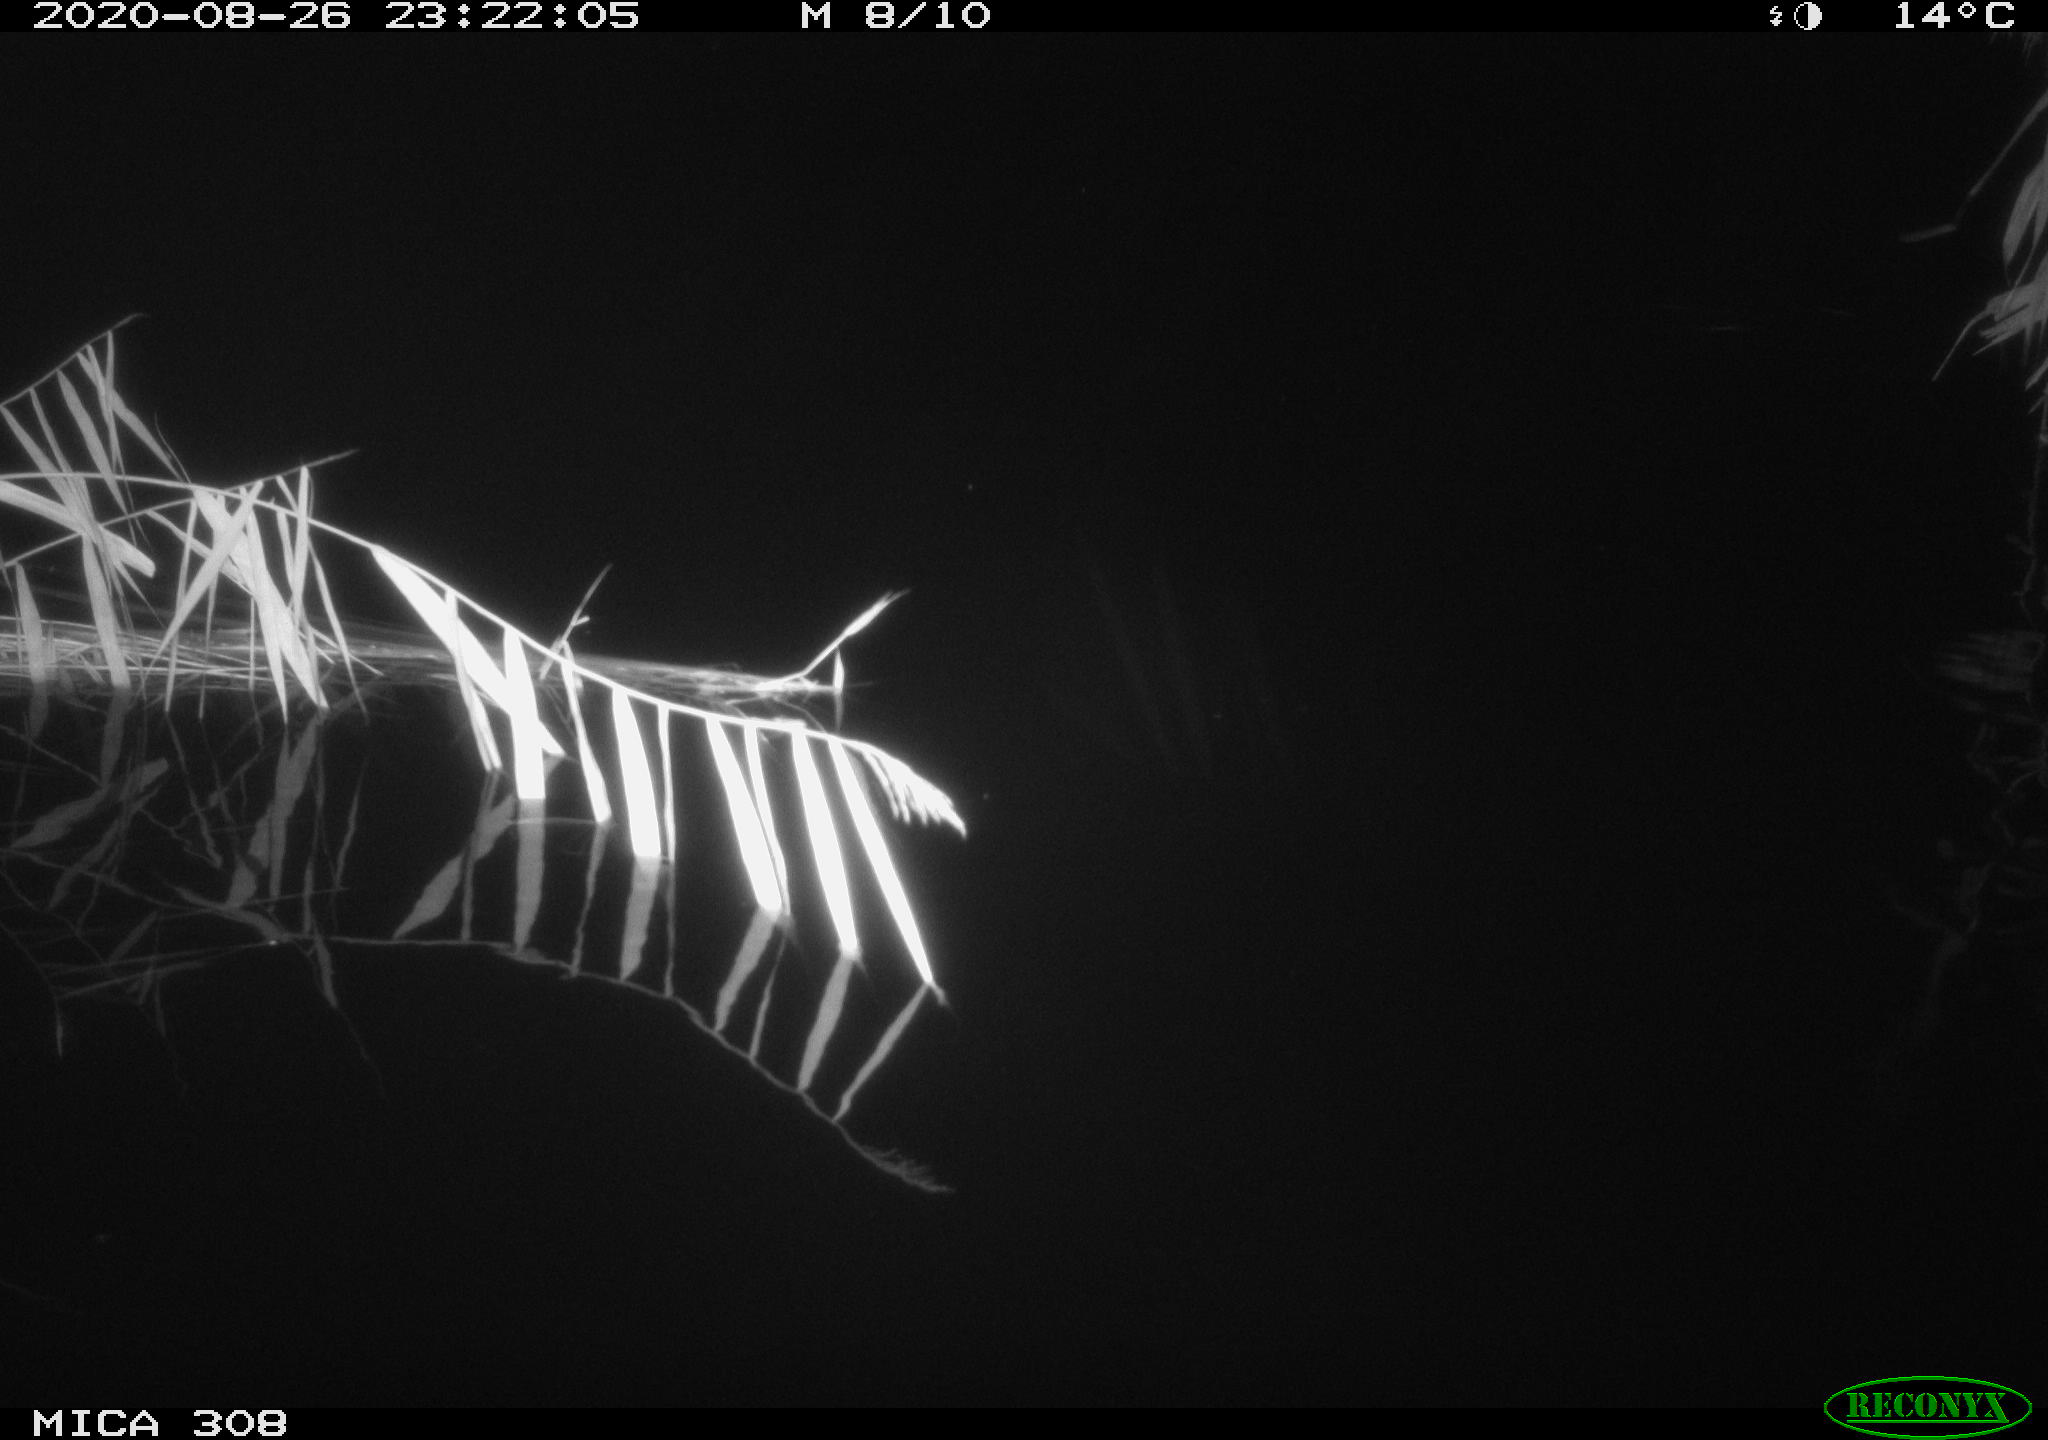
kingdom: Animalia
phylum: Chordata
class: Mammalia
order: Rodentia
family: Muridae
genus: Rattus
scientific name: Rattus norvegicus
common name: Brown rat
